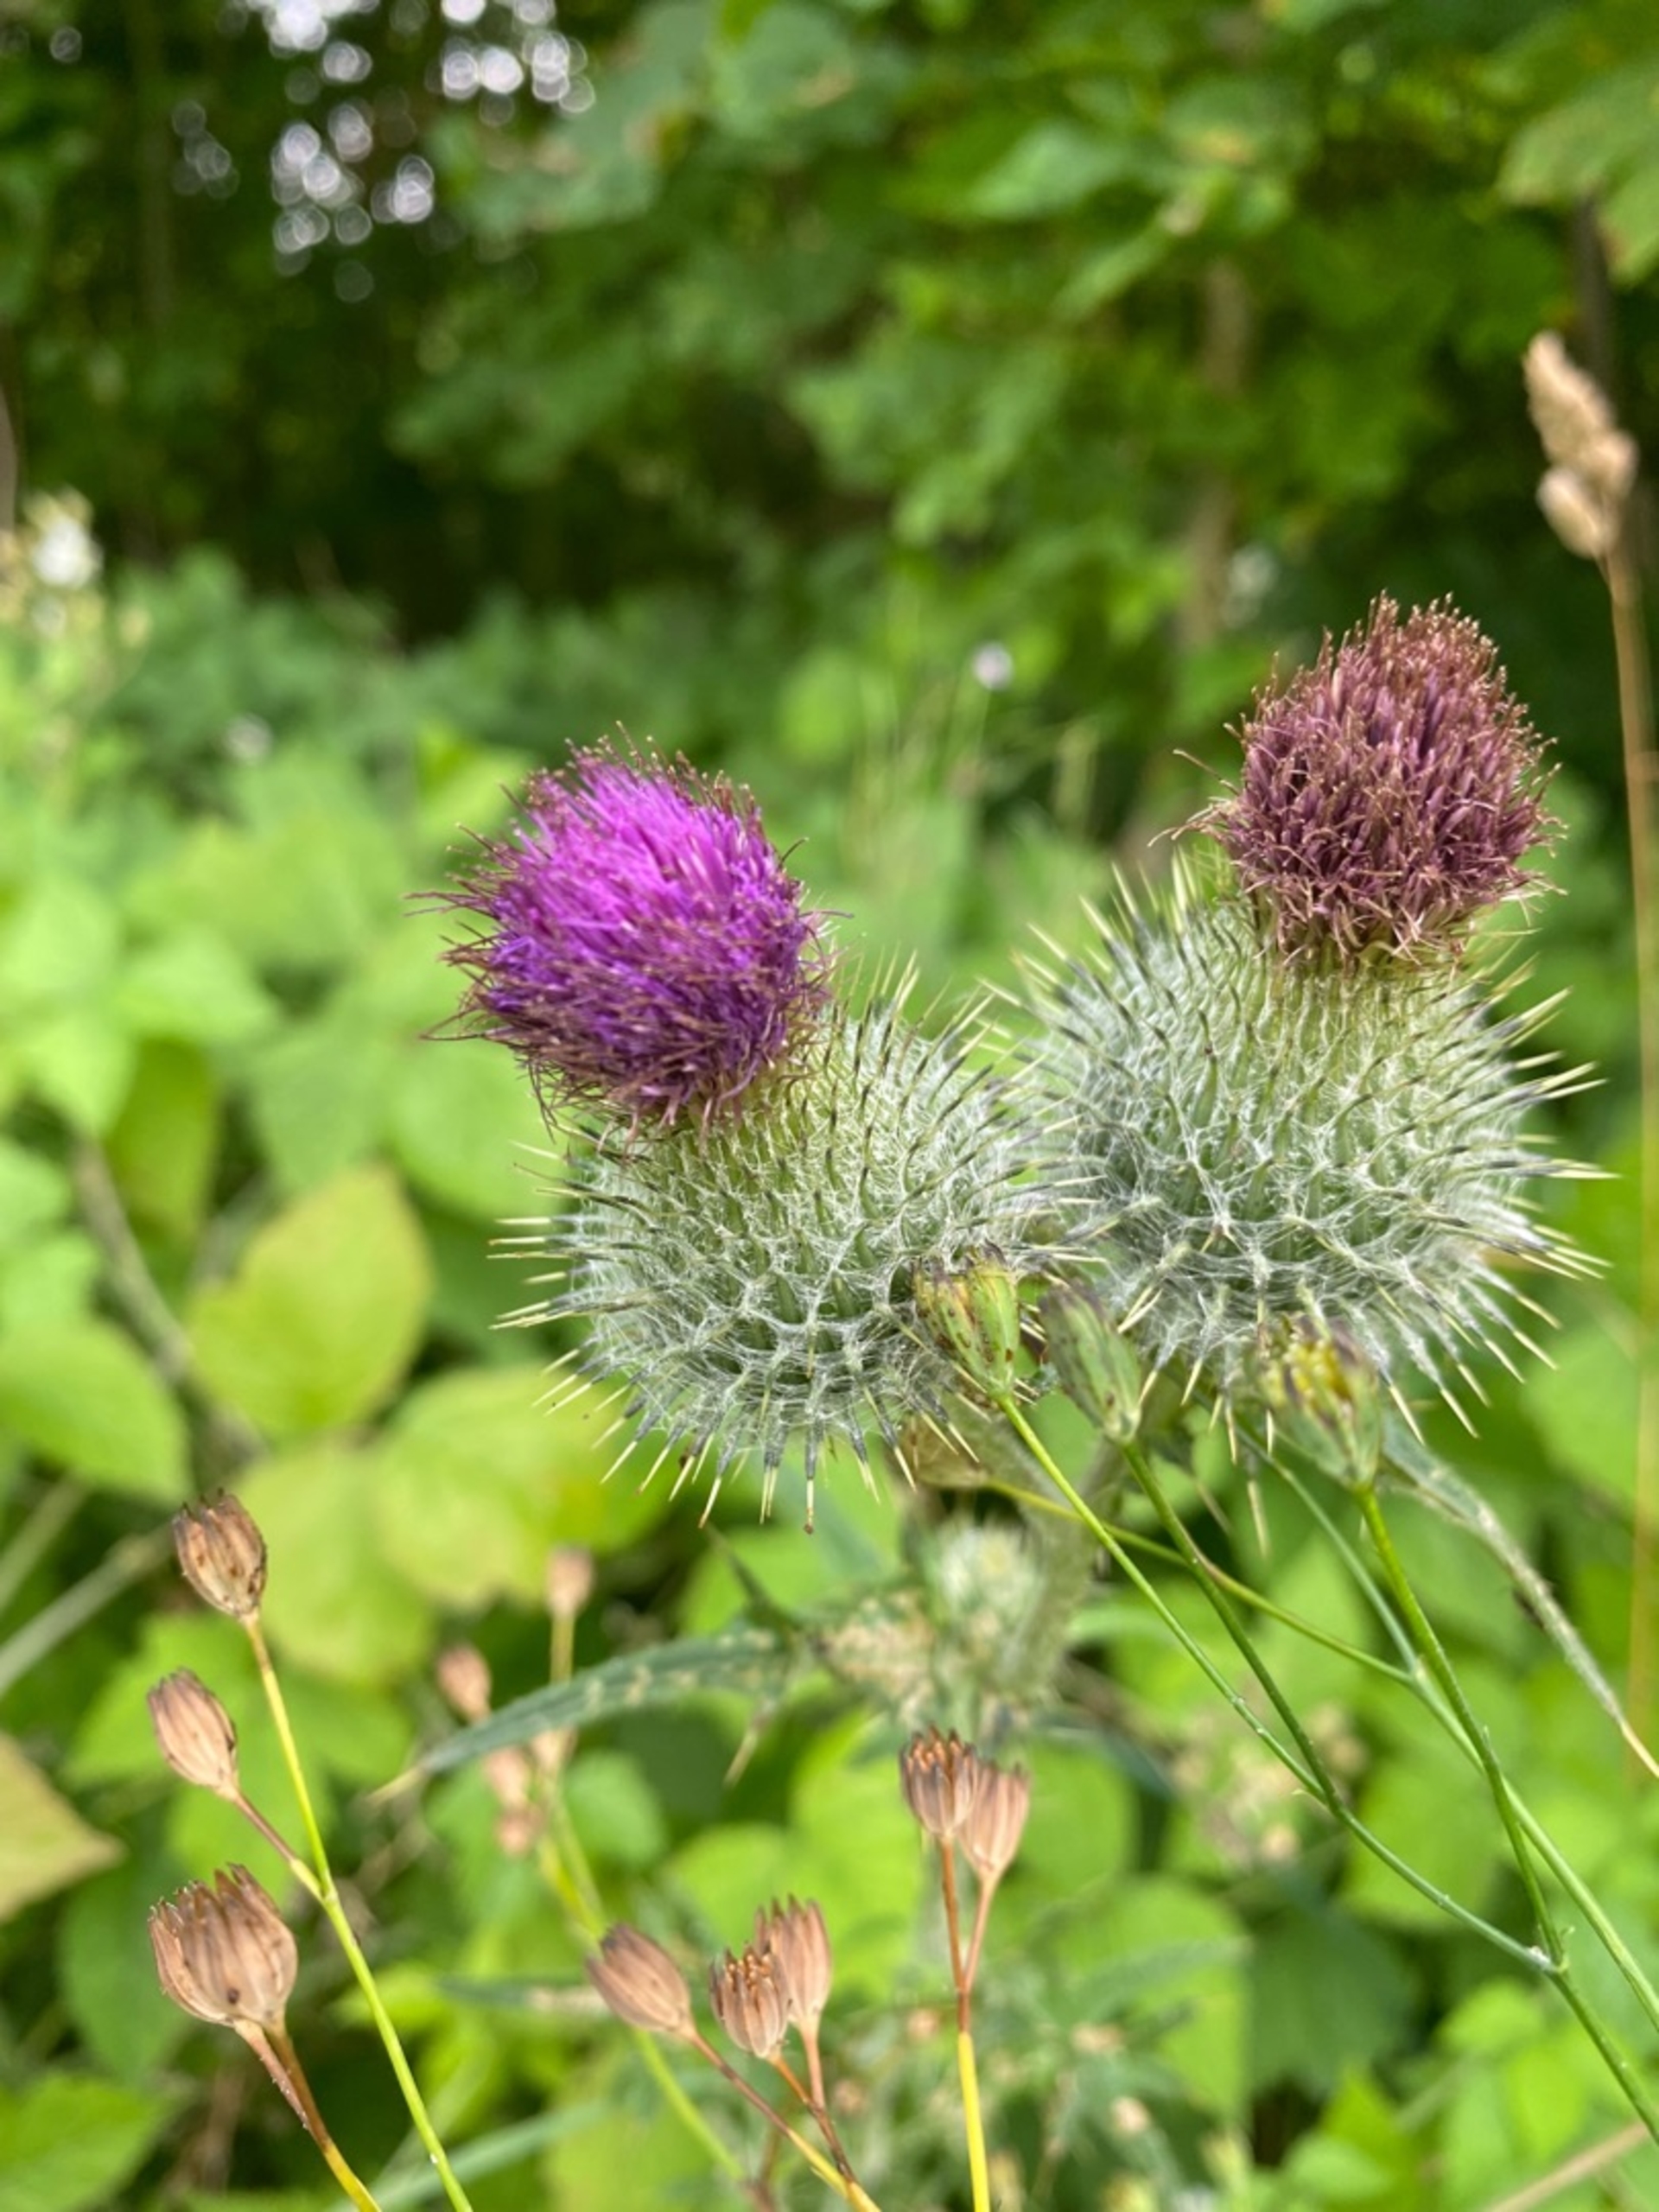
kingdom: Plantae
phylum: Tracheophyta
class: Magnoliopsida
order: Asterales
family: Asteraceae
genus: Cirsium
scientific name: Cirsium vulgare
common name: Horse-tidsel
